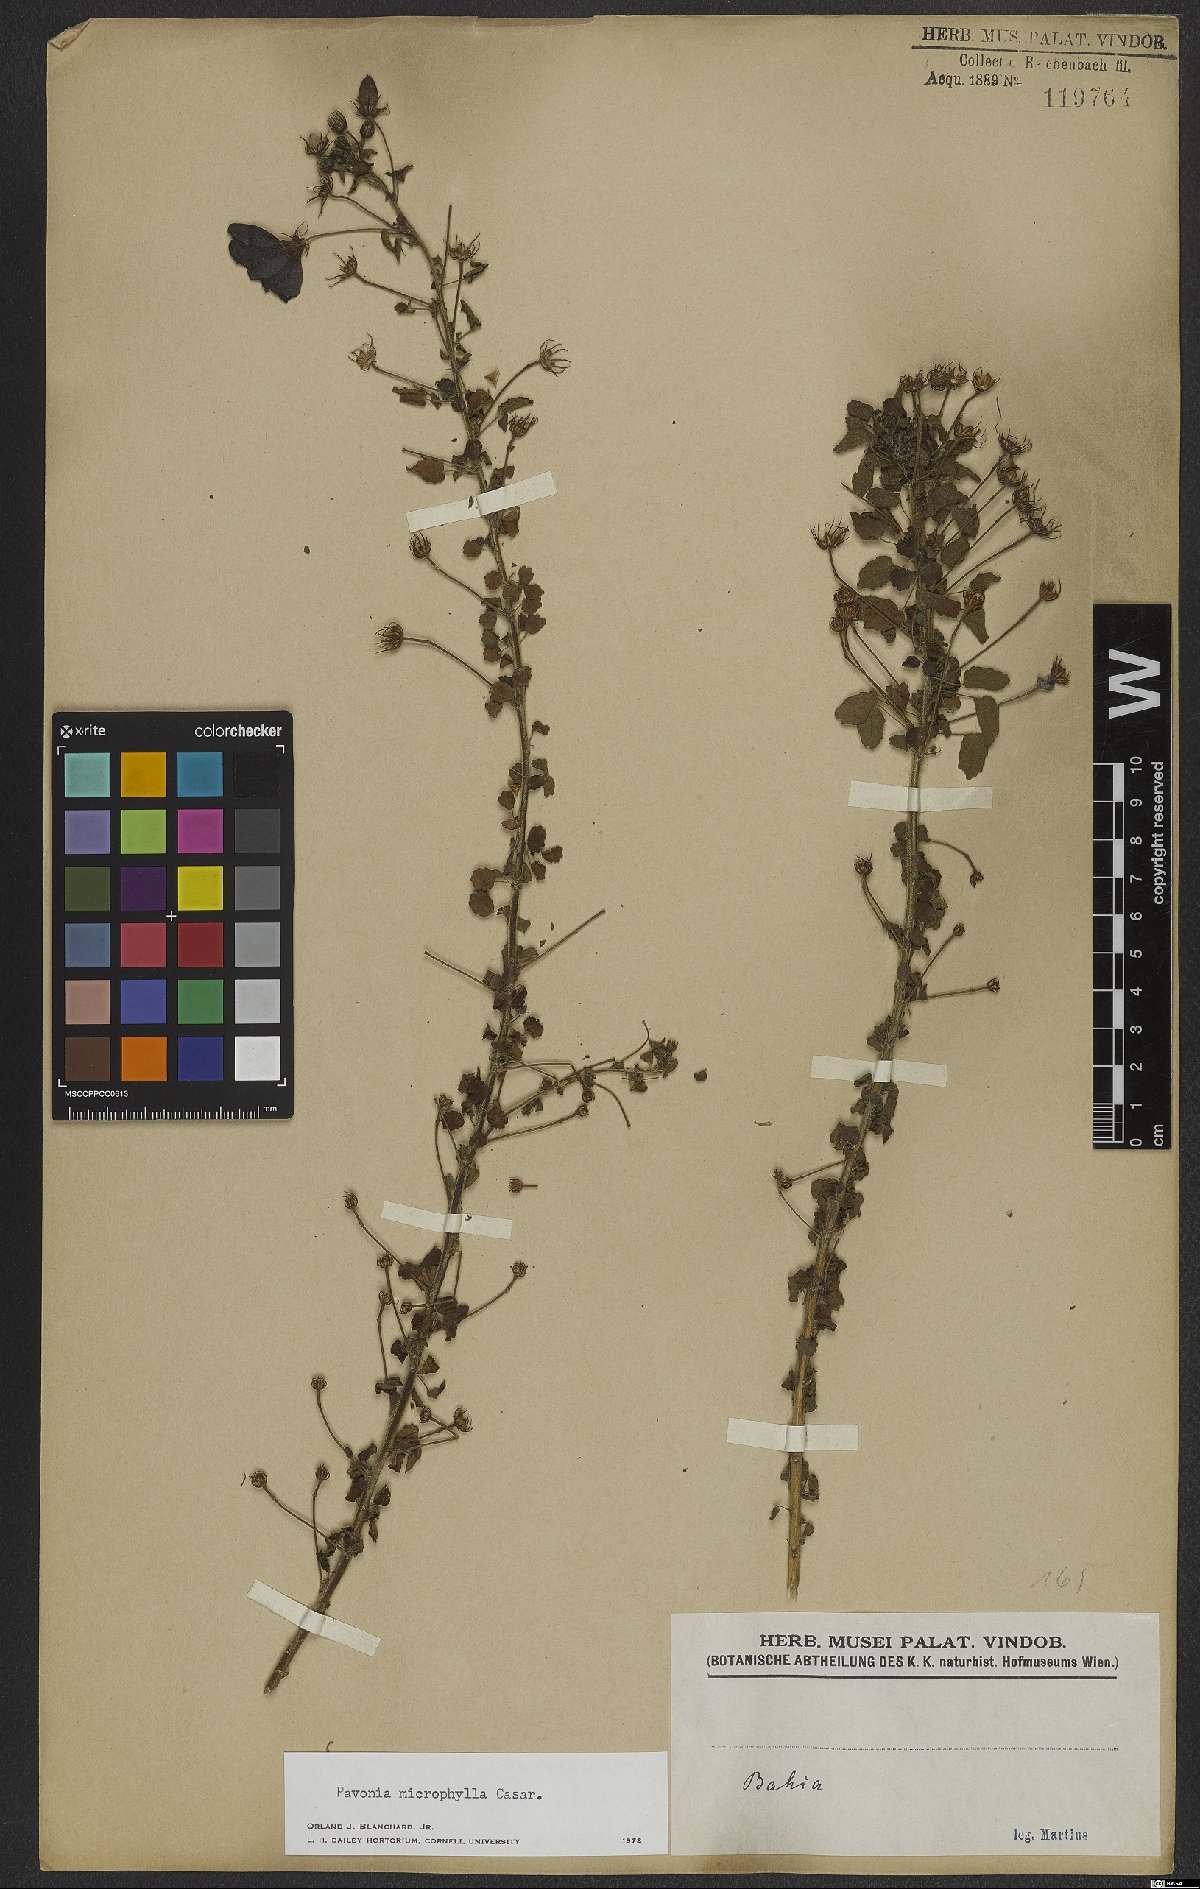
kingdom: Plantae
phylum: Tracheophyta
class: Magnoliopsida
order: Malvales
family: Malvaceae
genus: Pavonia
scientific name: Pavonia dregei
